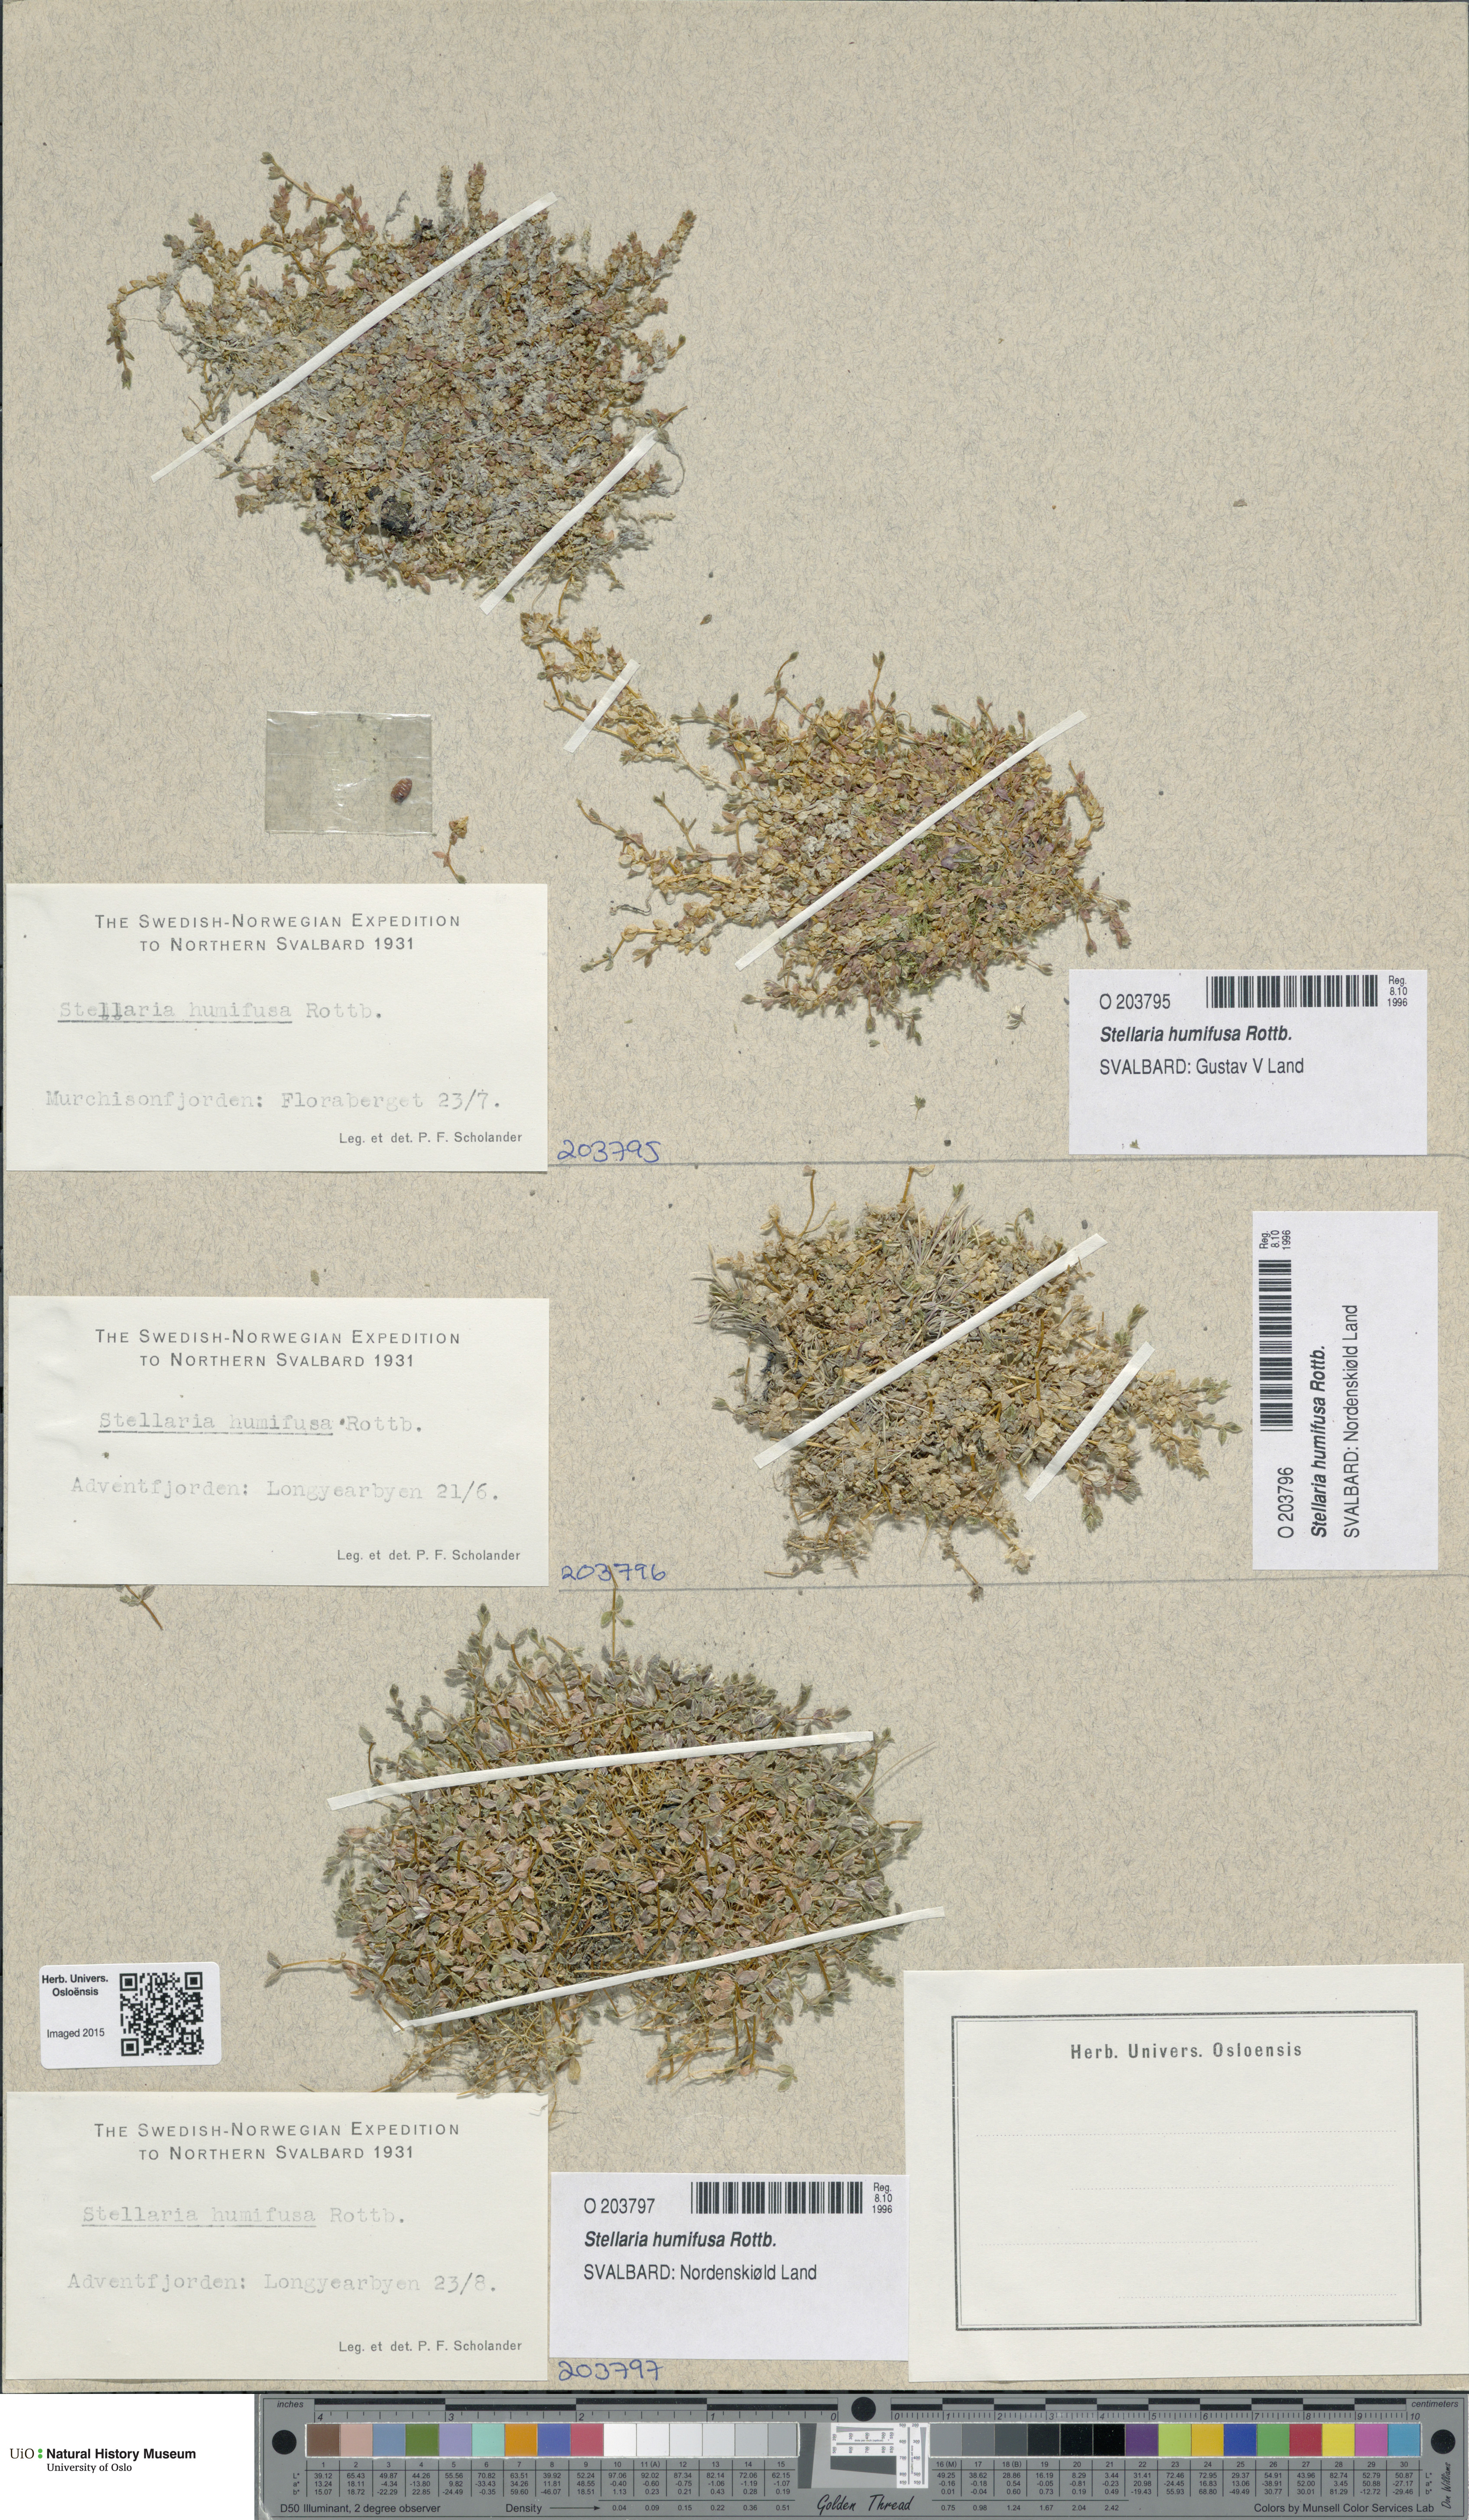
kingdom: Plantae
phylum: Tracheophyta
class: Magnoliopsida
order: Caryophyllales
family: Caryophyllaceae
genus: Stellaria
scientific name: Stellaria humifusa
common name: Creeping starwort
